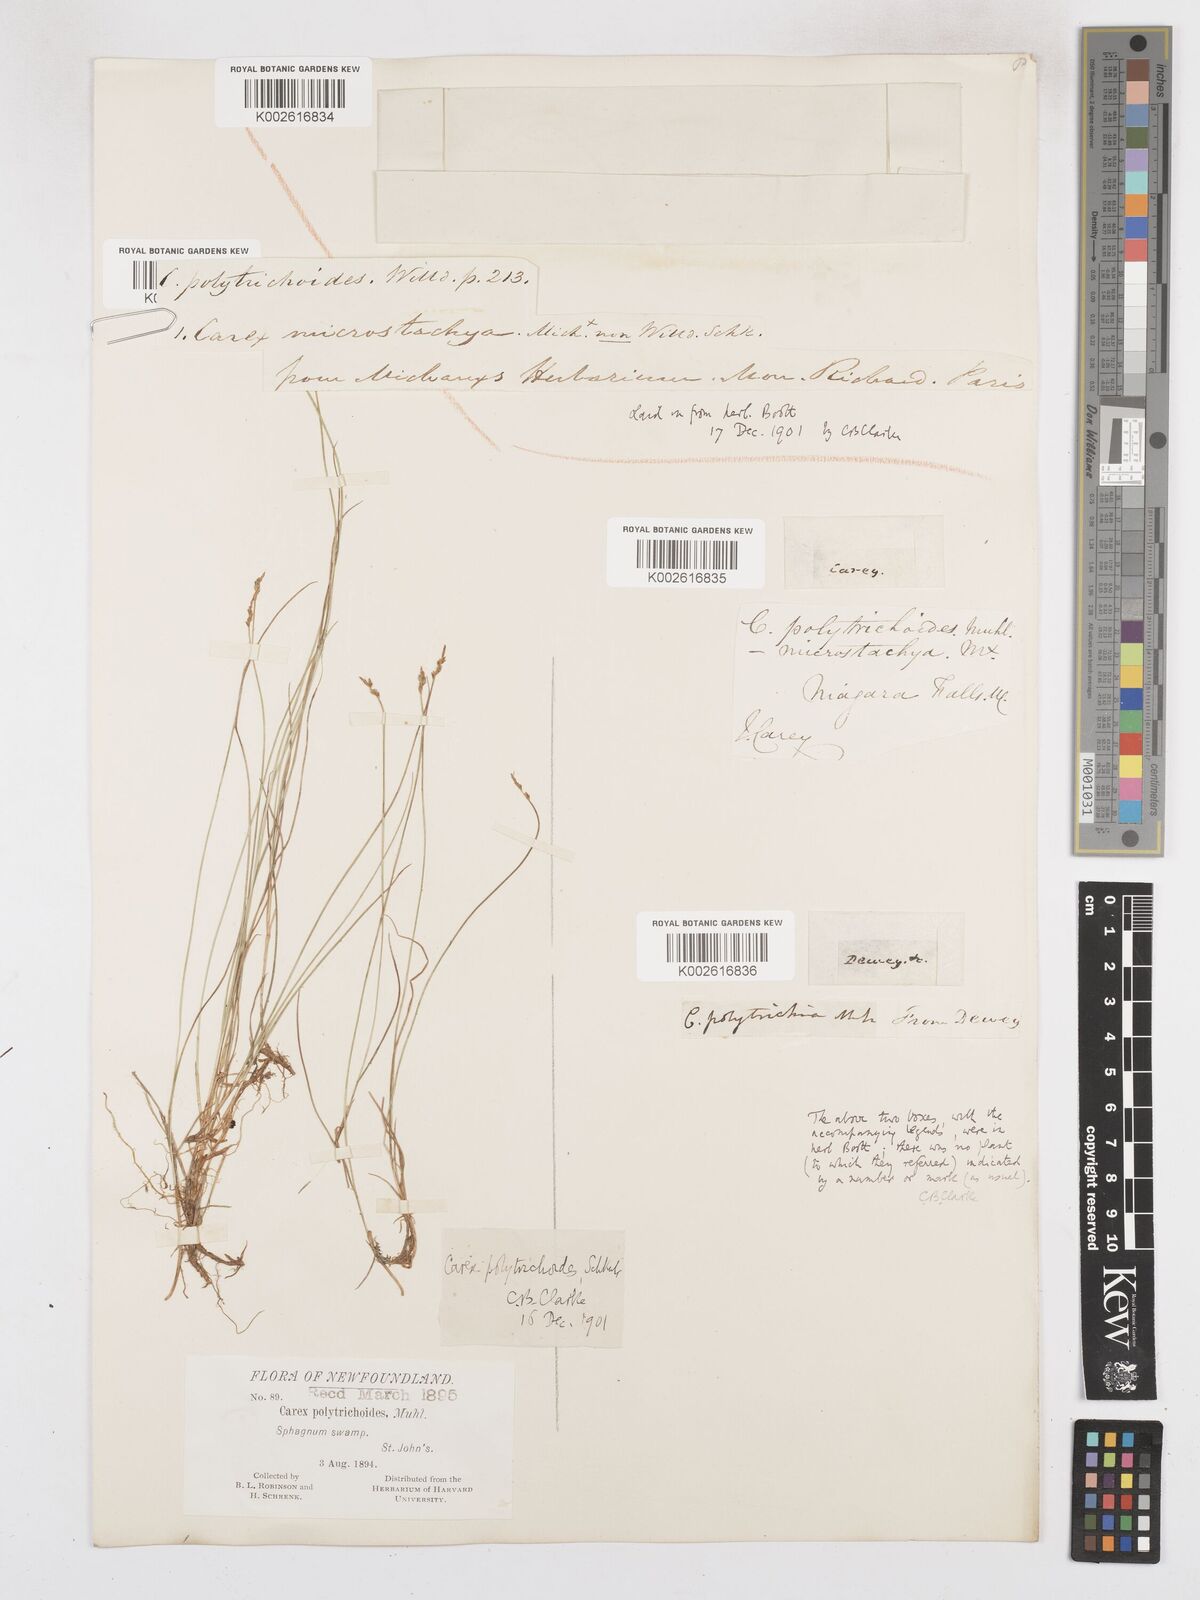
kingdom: Plantae
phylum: Tracheophyta
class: Liliopsida
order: Poales
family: Cyperaceae
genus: Carex
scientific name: Carex leptalea
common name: Bristly-stalked sedge
